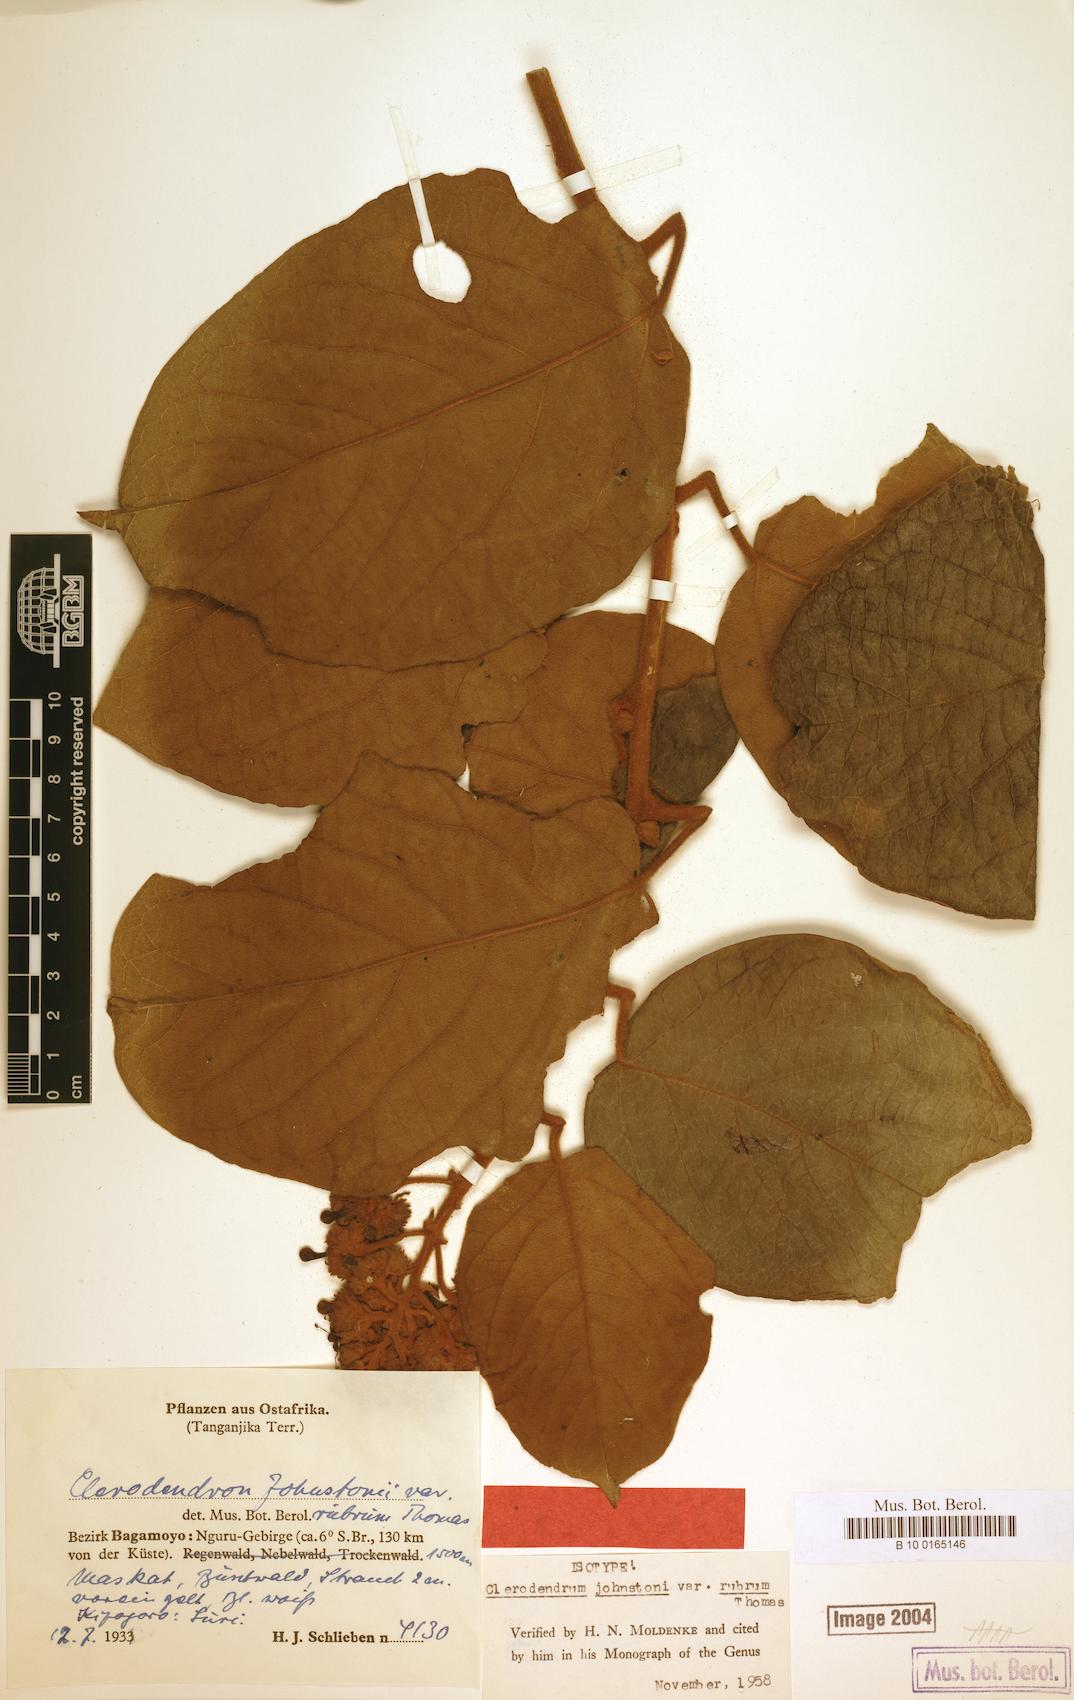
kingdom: Plantae
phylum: Tracheophyta
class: Magnoliopsida
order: Lamiales
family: Lamiaceae
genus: Clerodendrum
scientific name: Clerodendrum johnstonii
